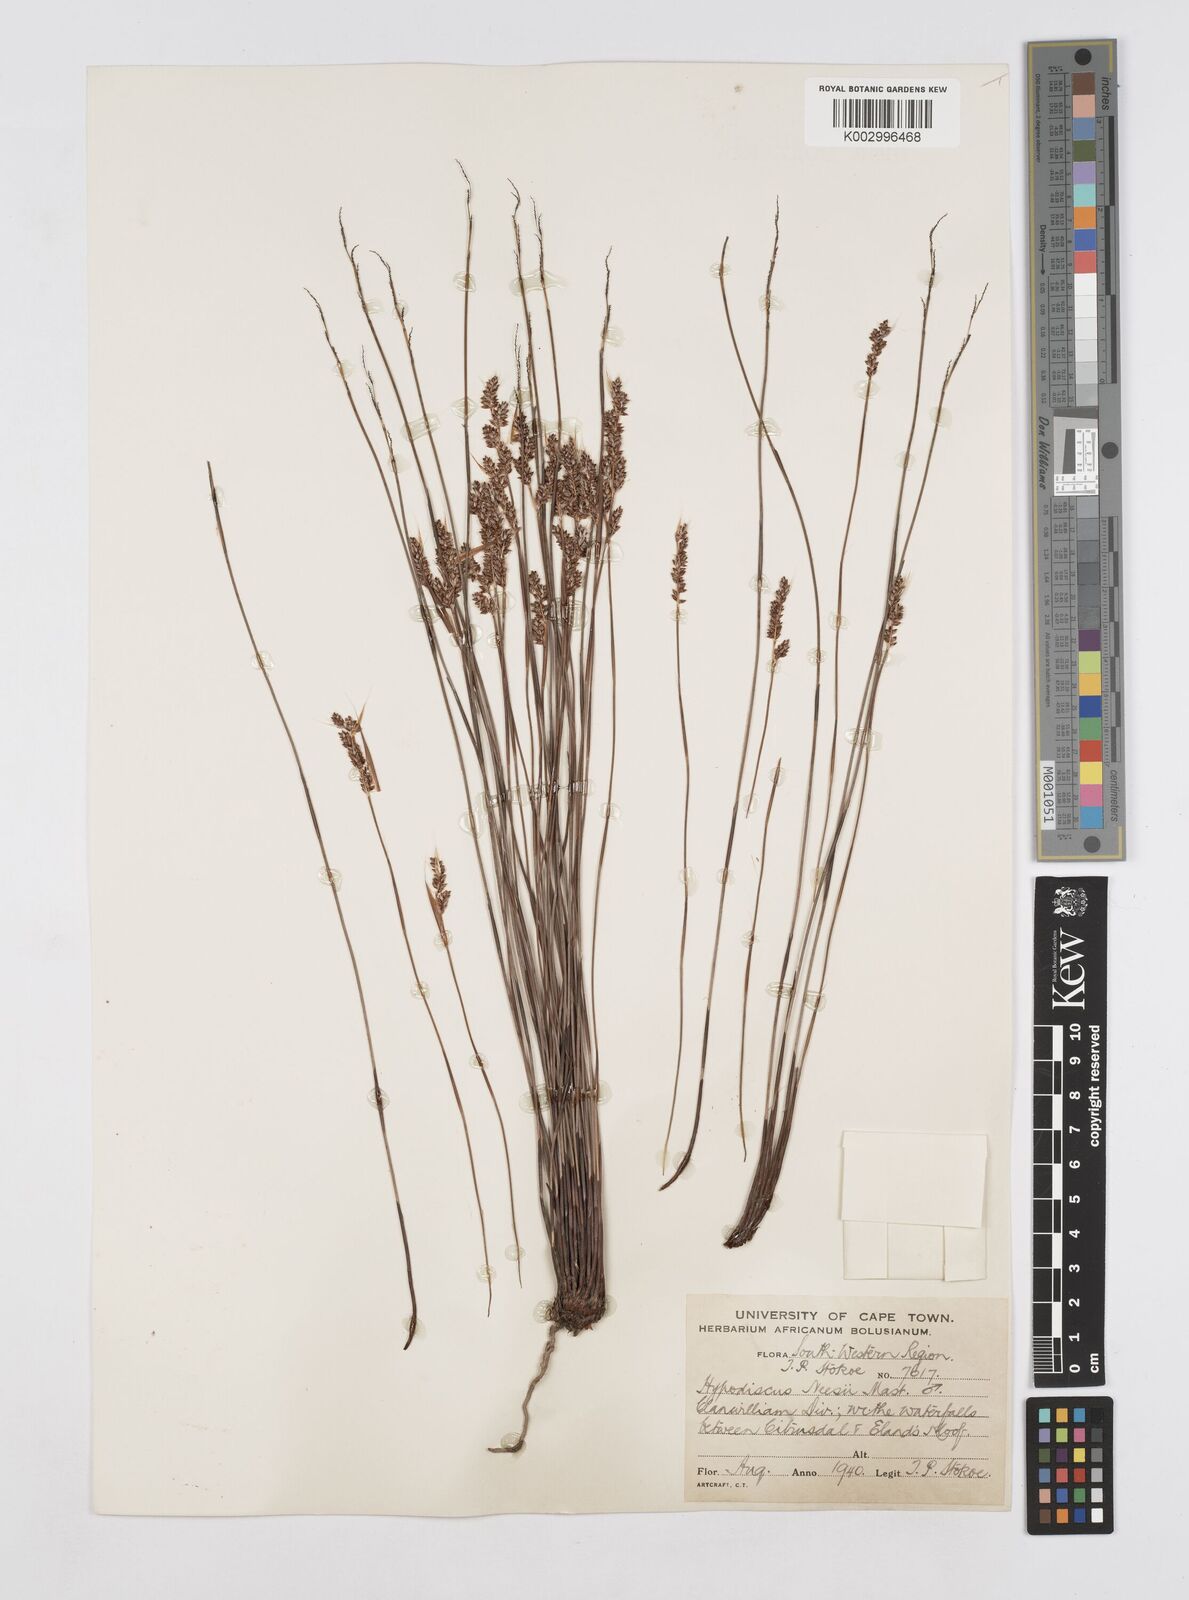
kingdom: Plantae
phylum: Tracheophyta
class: Liliopsida
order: Poales
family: Restionaceae
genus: Hypodiscus
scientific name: Hypodiscus neesii
